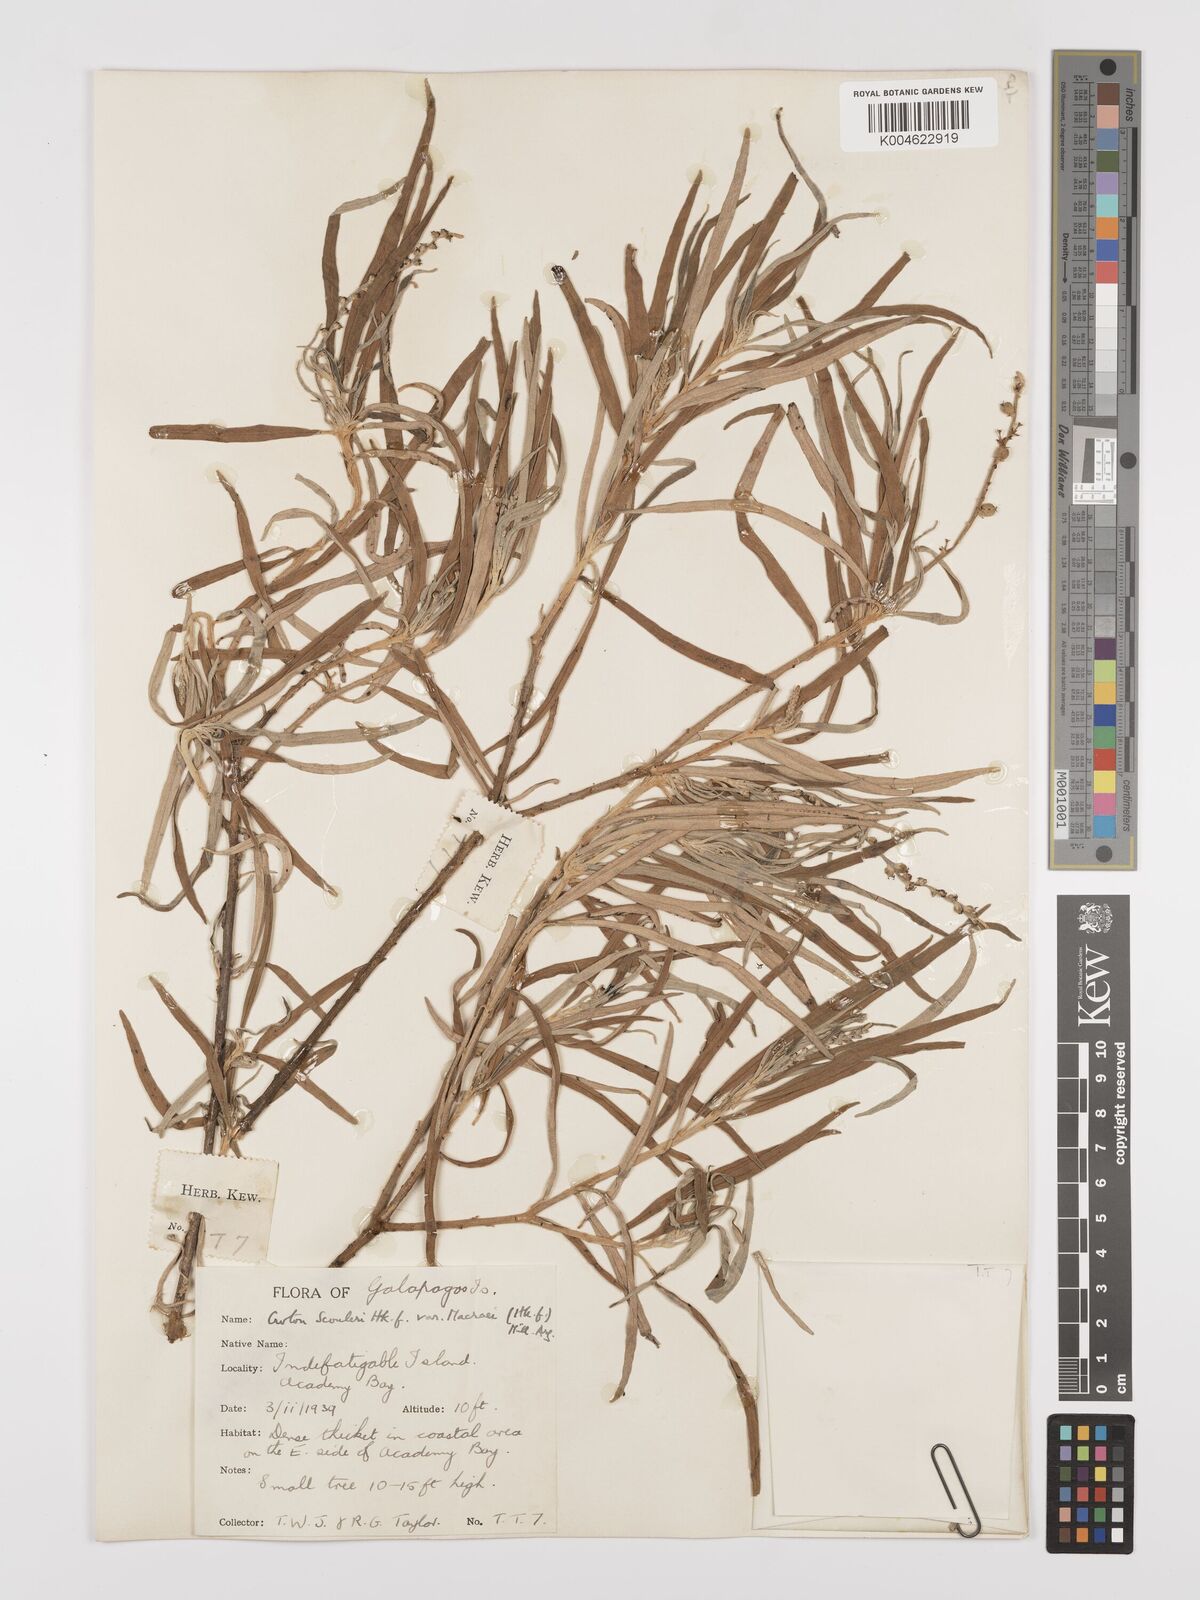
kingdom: Plantae
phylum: Tracheophyta
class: Magnoliopsida
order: Malpighiales
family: Euphorbiaceae
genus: Croton
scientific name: Croton scouleri
